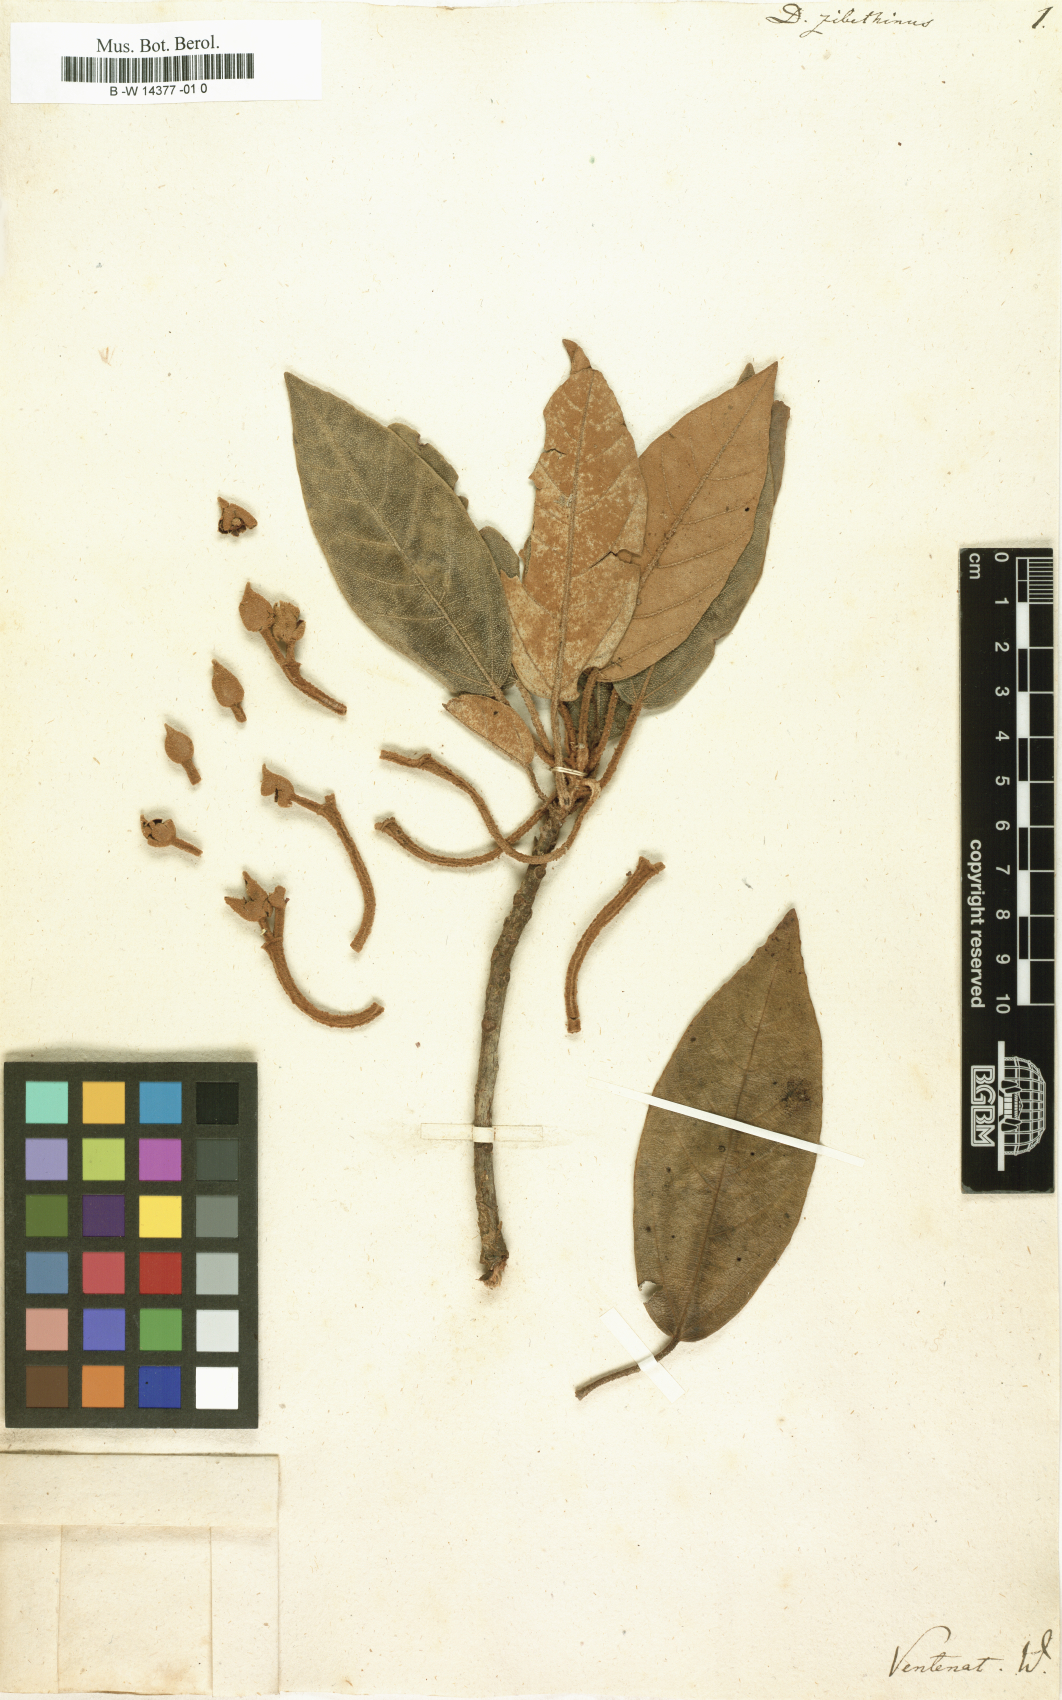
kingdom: Plantae
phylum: Tracheophyta
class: Magnoliopsida
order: Malvales
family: Malvaceae
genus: Durio
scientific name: Durio zibethinus
